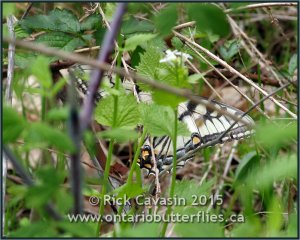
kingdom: Animalia
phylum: Arthropoda
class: Insecta
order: Lepidoptera
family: Papilionidae
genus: Pterourus
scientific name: Pterourus glaucus
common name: Eastern Tiger Swallowtail
